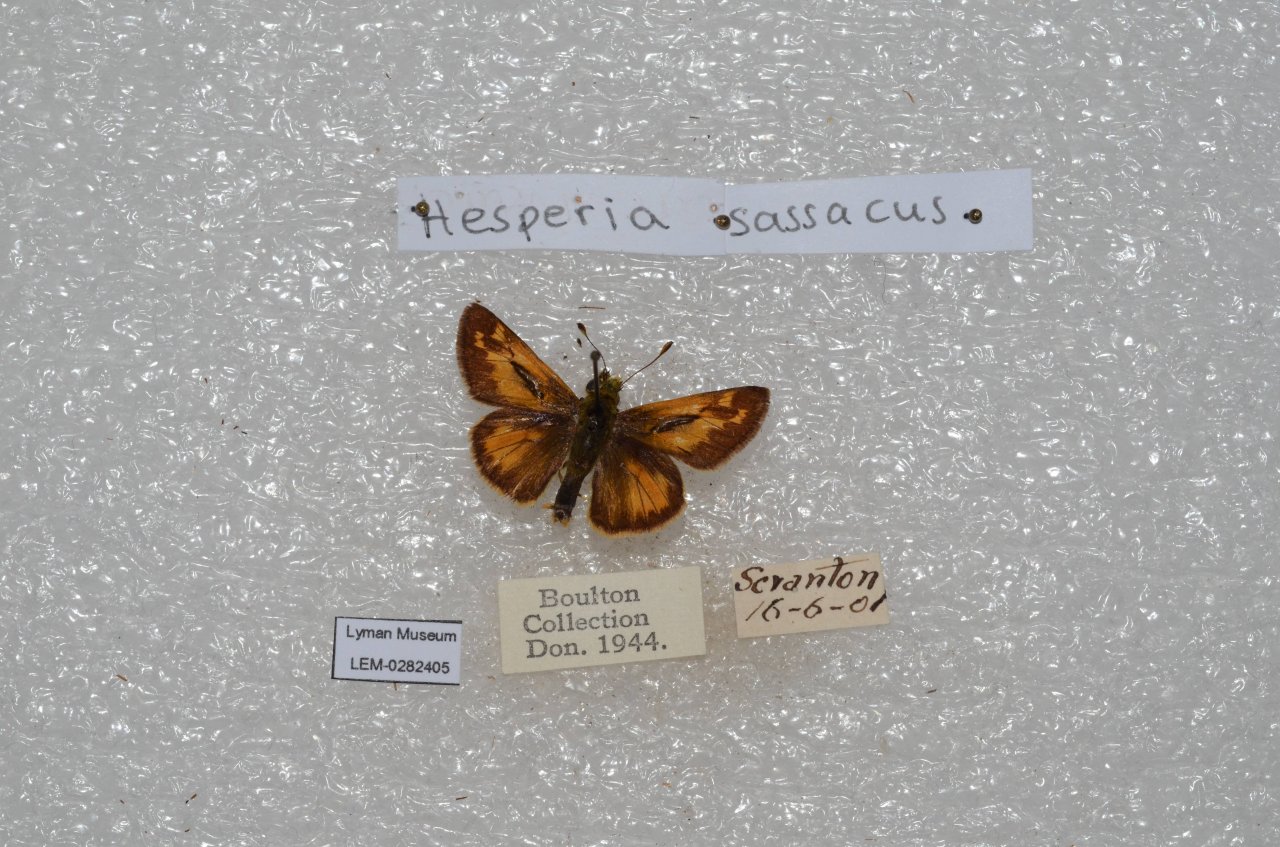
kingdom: Animalia
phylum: Arthropoda
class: Insecta
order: Lepidoptera
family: Hesperiidae
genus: Hesperia
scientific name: Hesperia sassacus
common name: Sassacus Skipper
